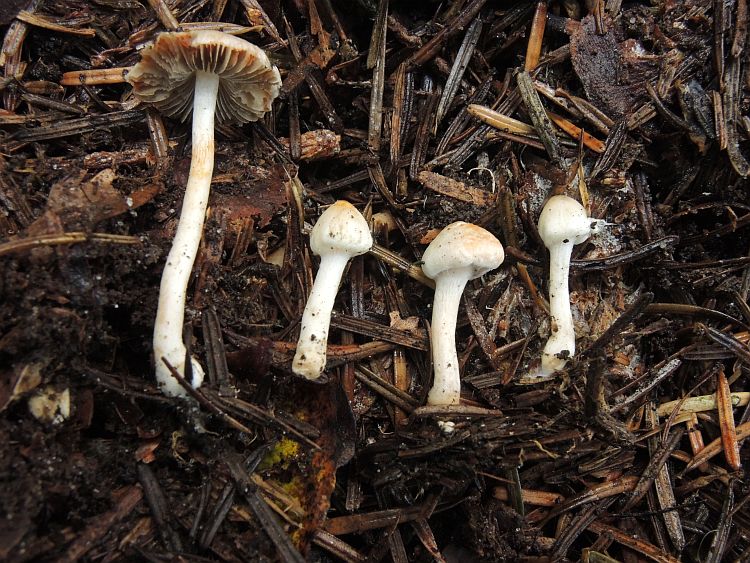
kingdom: Fungi
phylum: Basidiomycota
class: Agaricomycetes
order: Agaricales
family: Inocybaceae
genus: Inocybe
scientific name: Inocybe godeyi
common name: orangerødmende trævlhat
